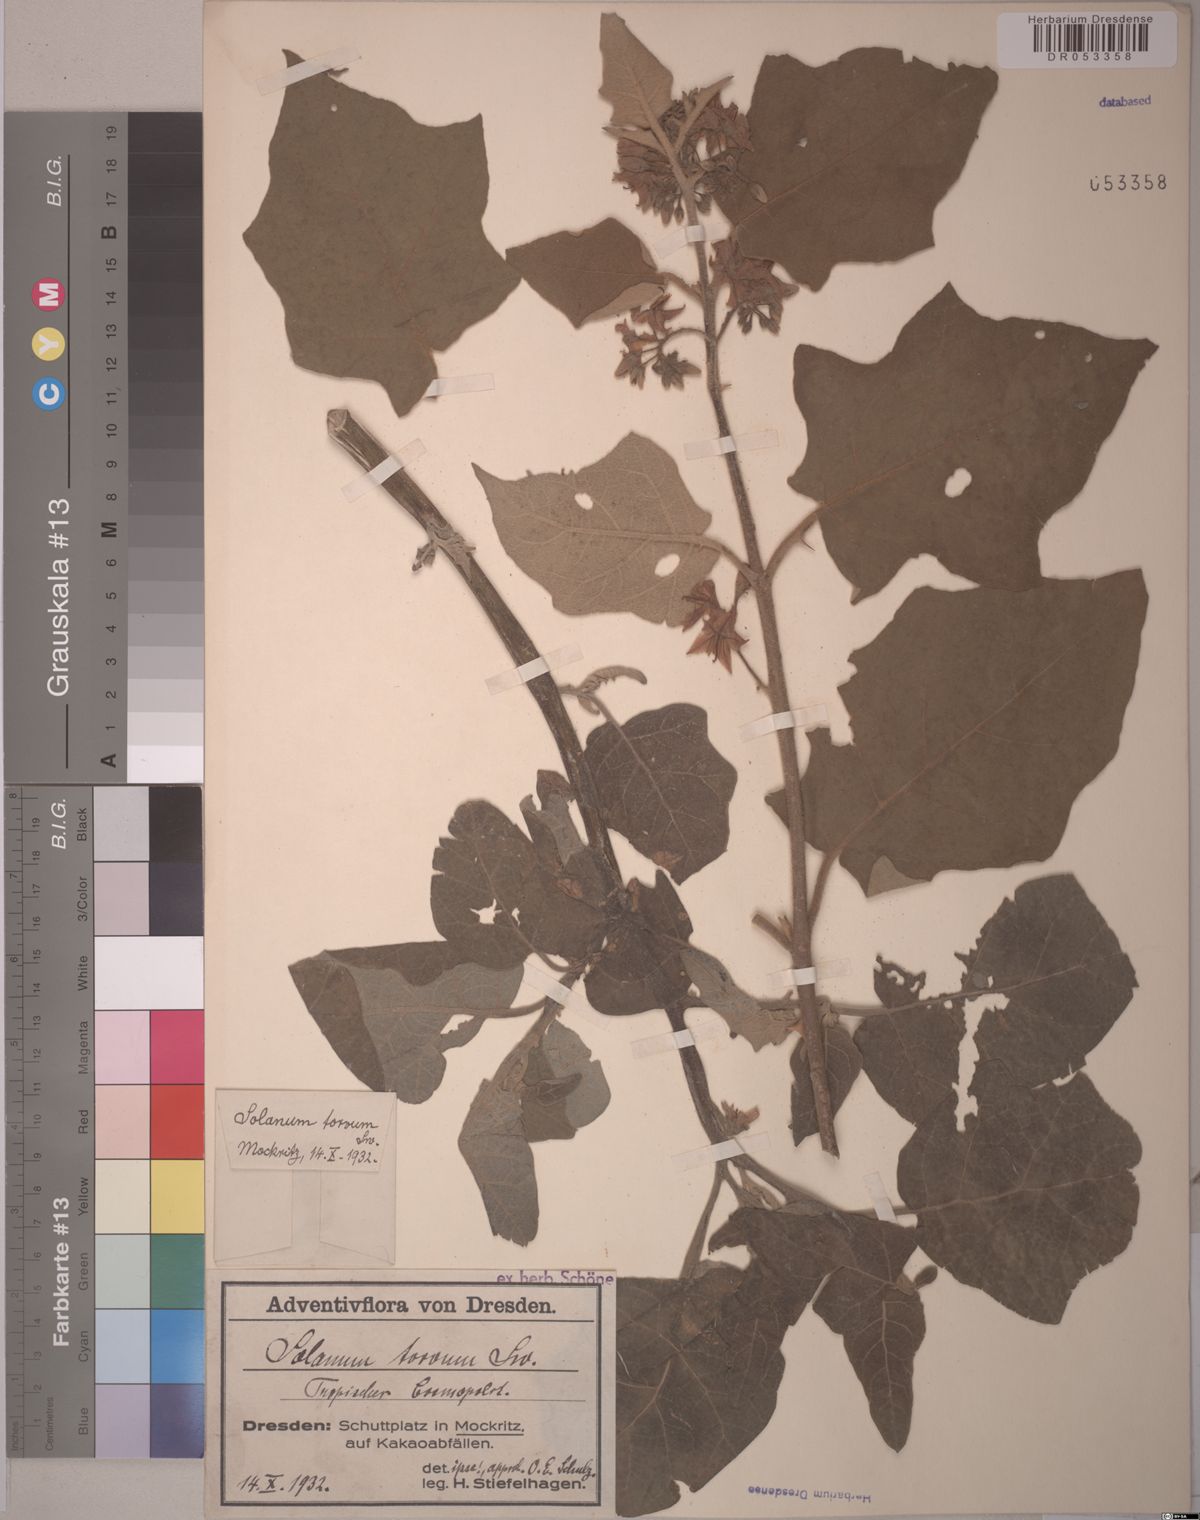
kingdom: Plantae
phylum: Tracheophyta
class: Magnoliopsida
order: Solanales
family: Solanaceae
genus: Solanum
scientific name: Solanum torvum
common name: Turkey berry
